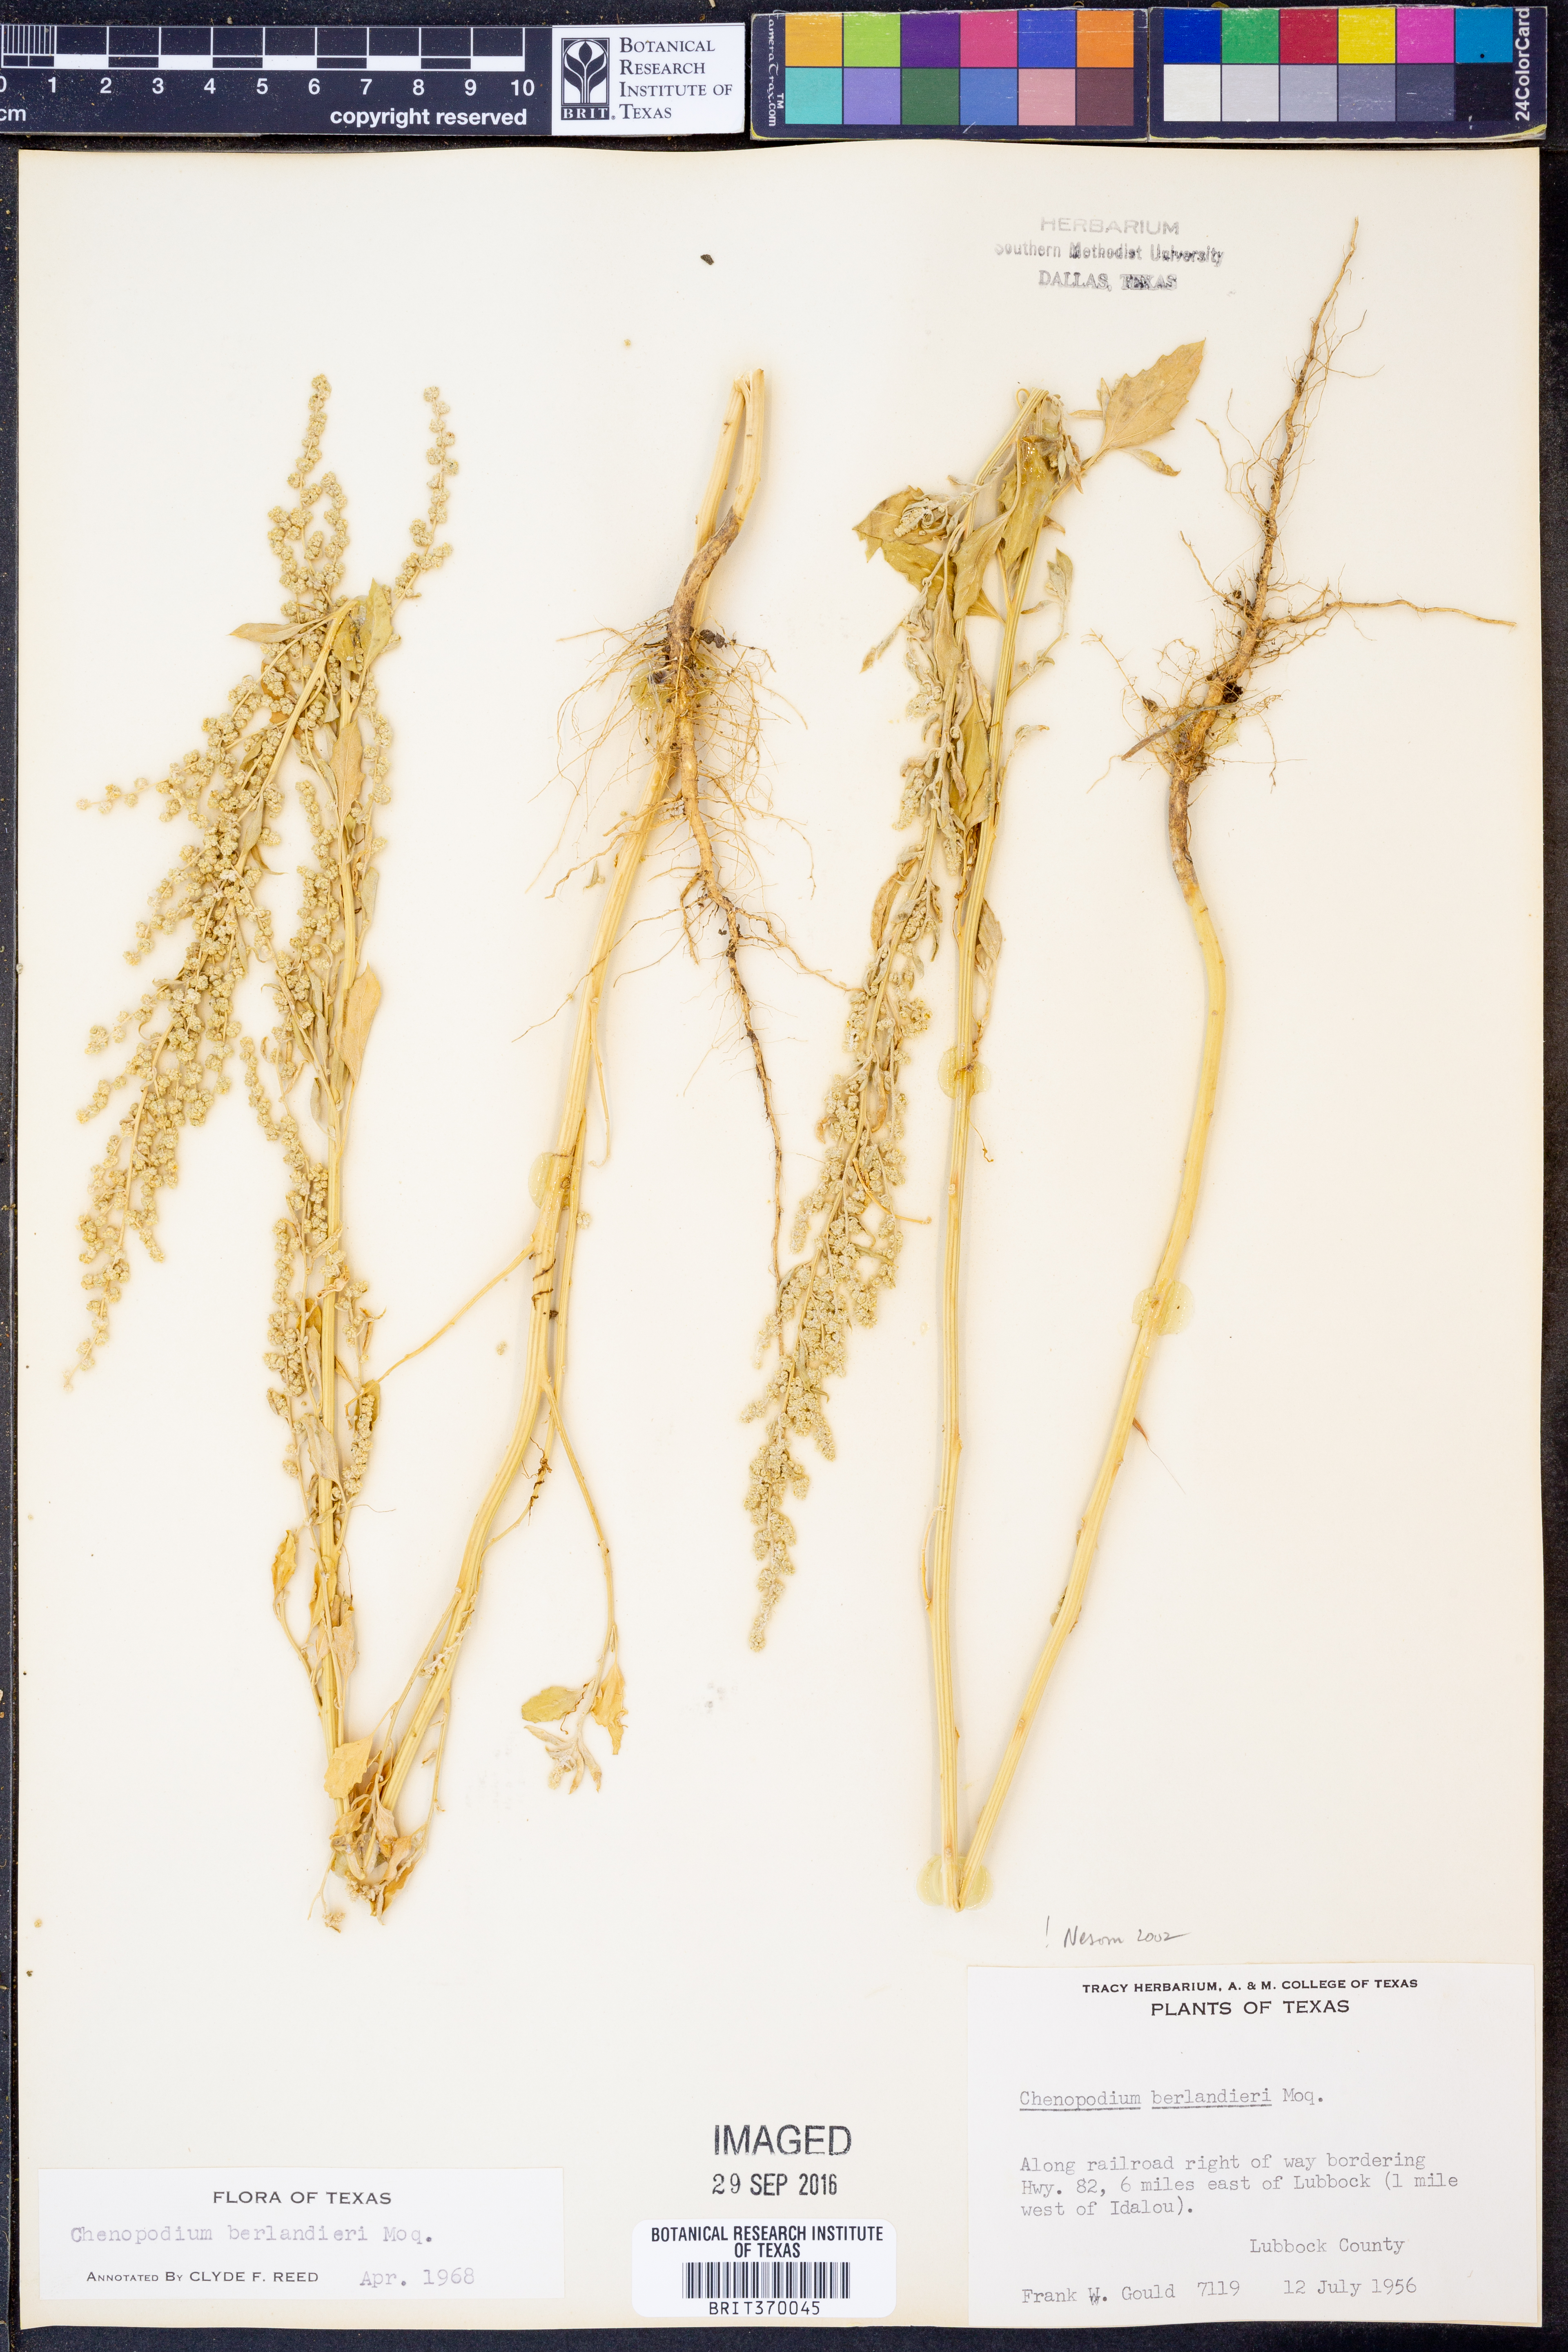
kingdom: Plantae
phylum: Tracheophyta
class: Magnoliopsida
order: Caryophyllales
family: Amaranthaceae
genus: Chenopodium
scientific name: Chenopodium berlandieri
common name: Pit-seed goosefoot
